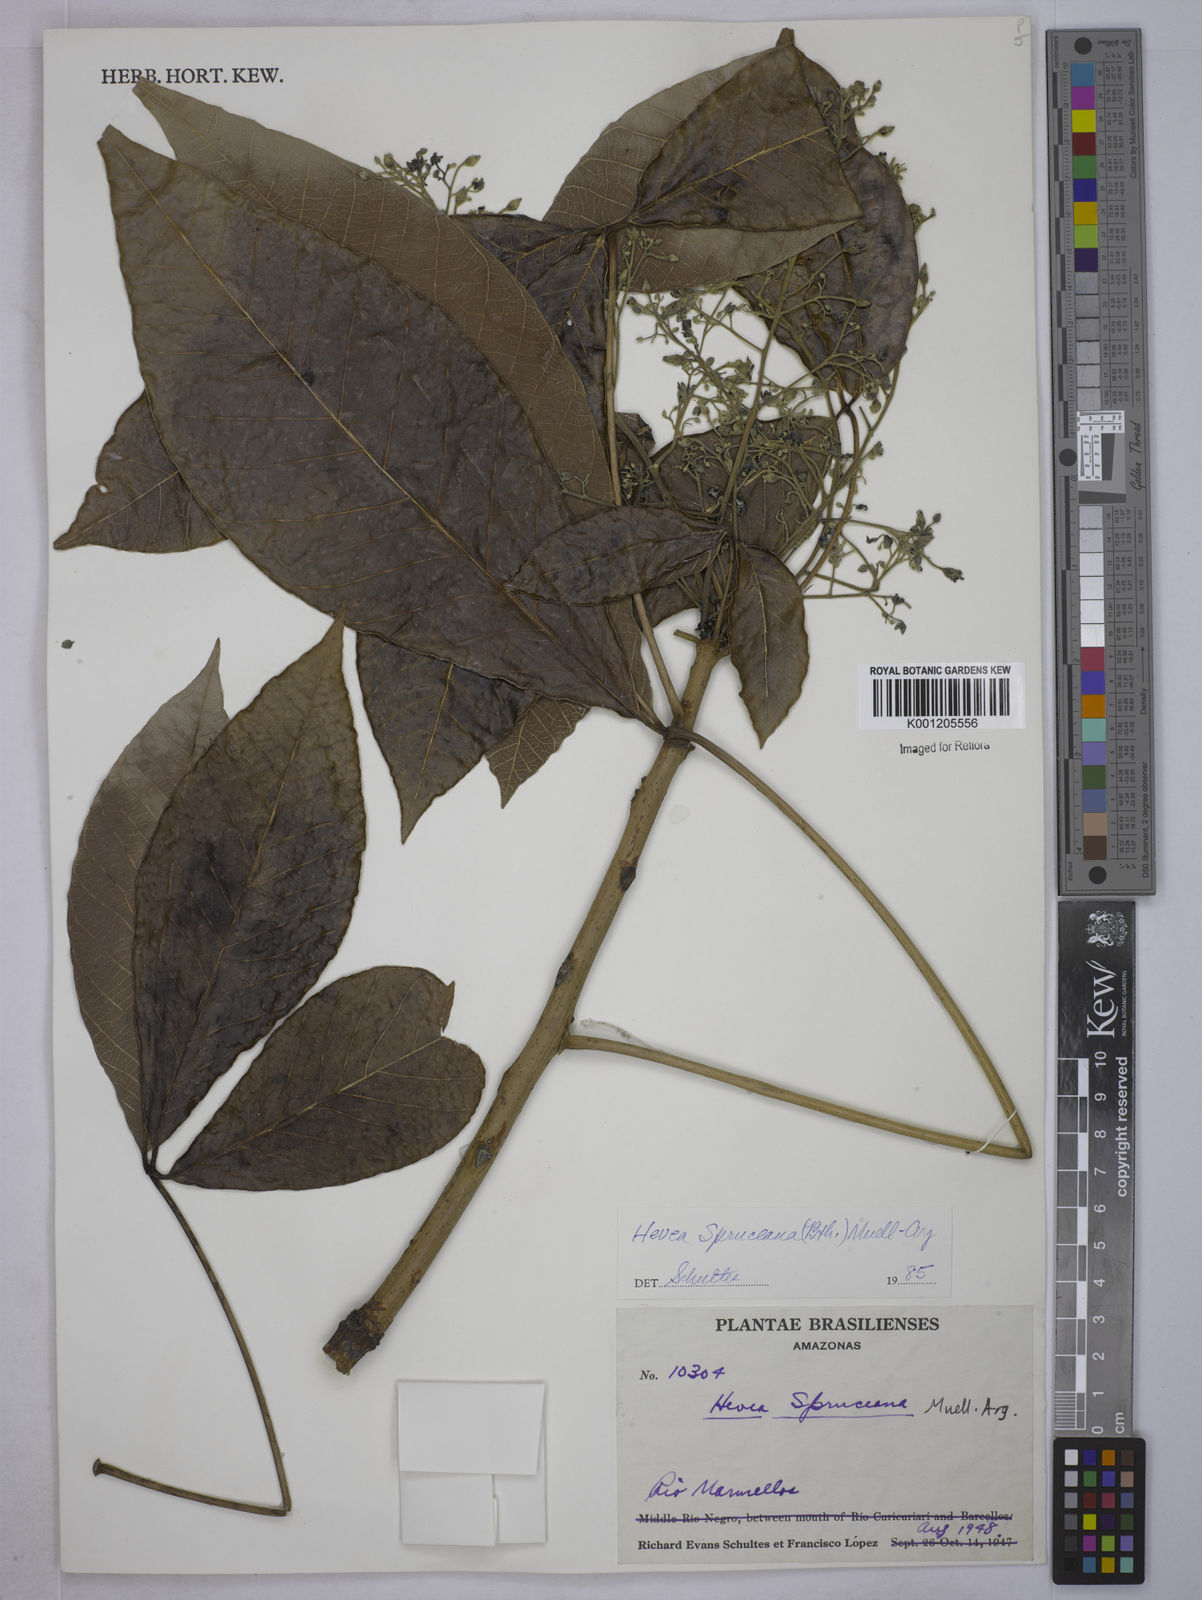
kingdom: Plantae
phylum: Tracheophyta
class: Magnoliopsida
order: Malpighiales
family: Euphorbiaceae
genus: Hevea
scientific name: Hevea
